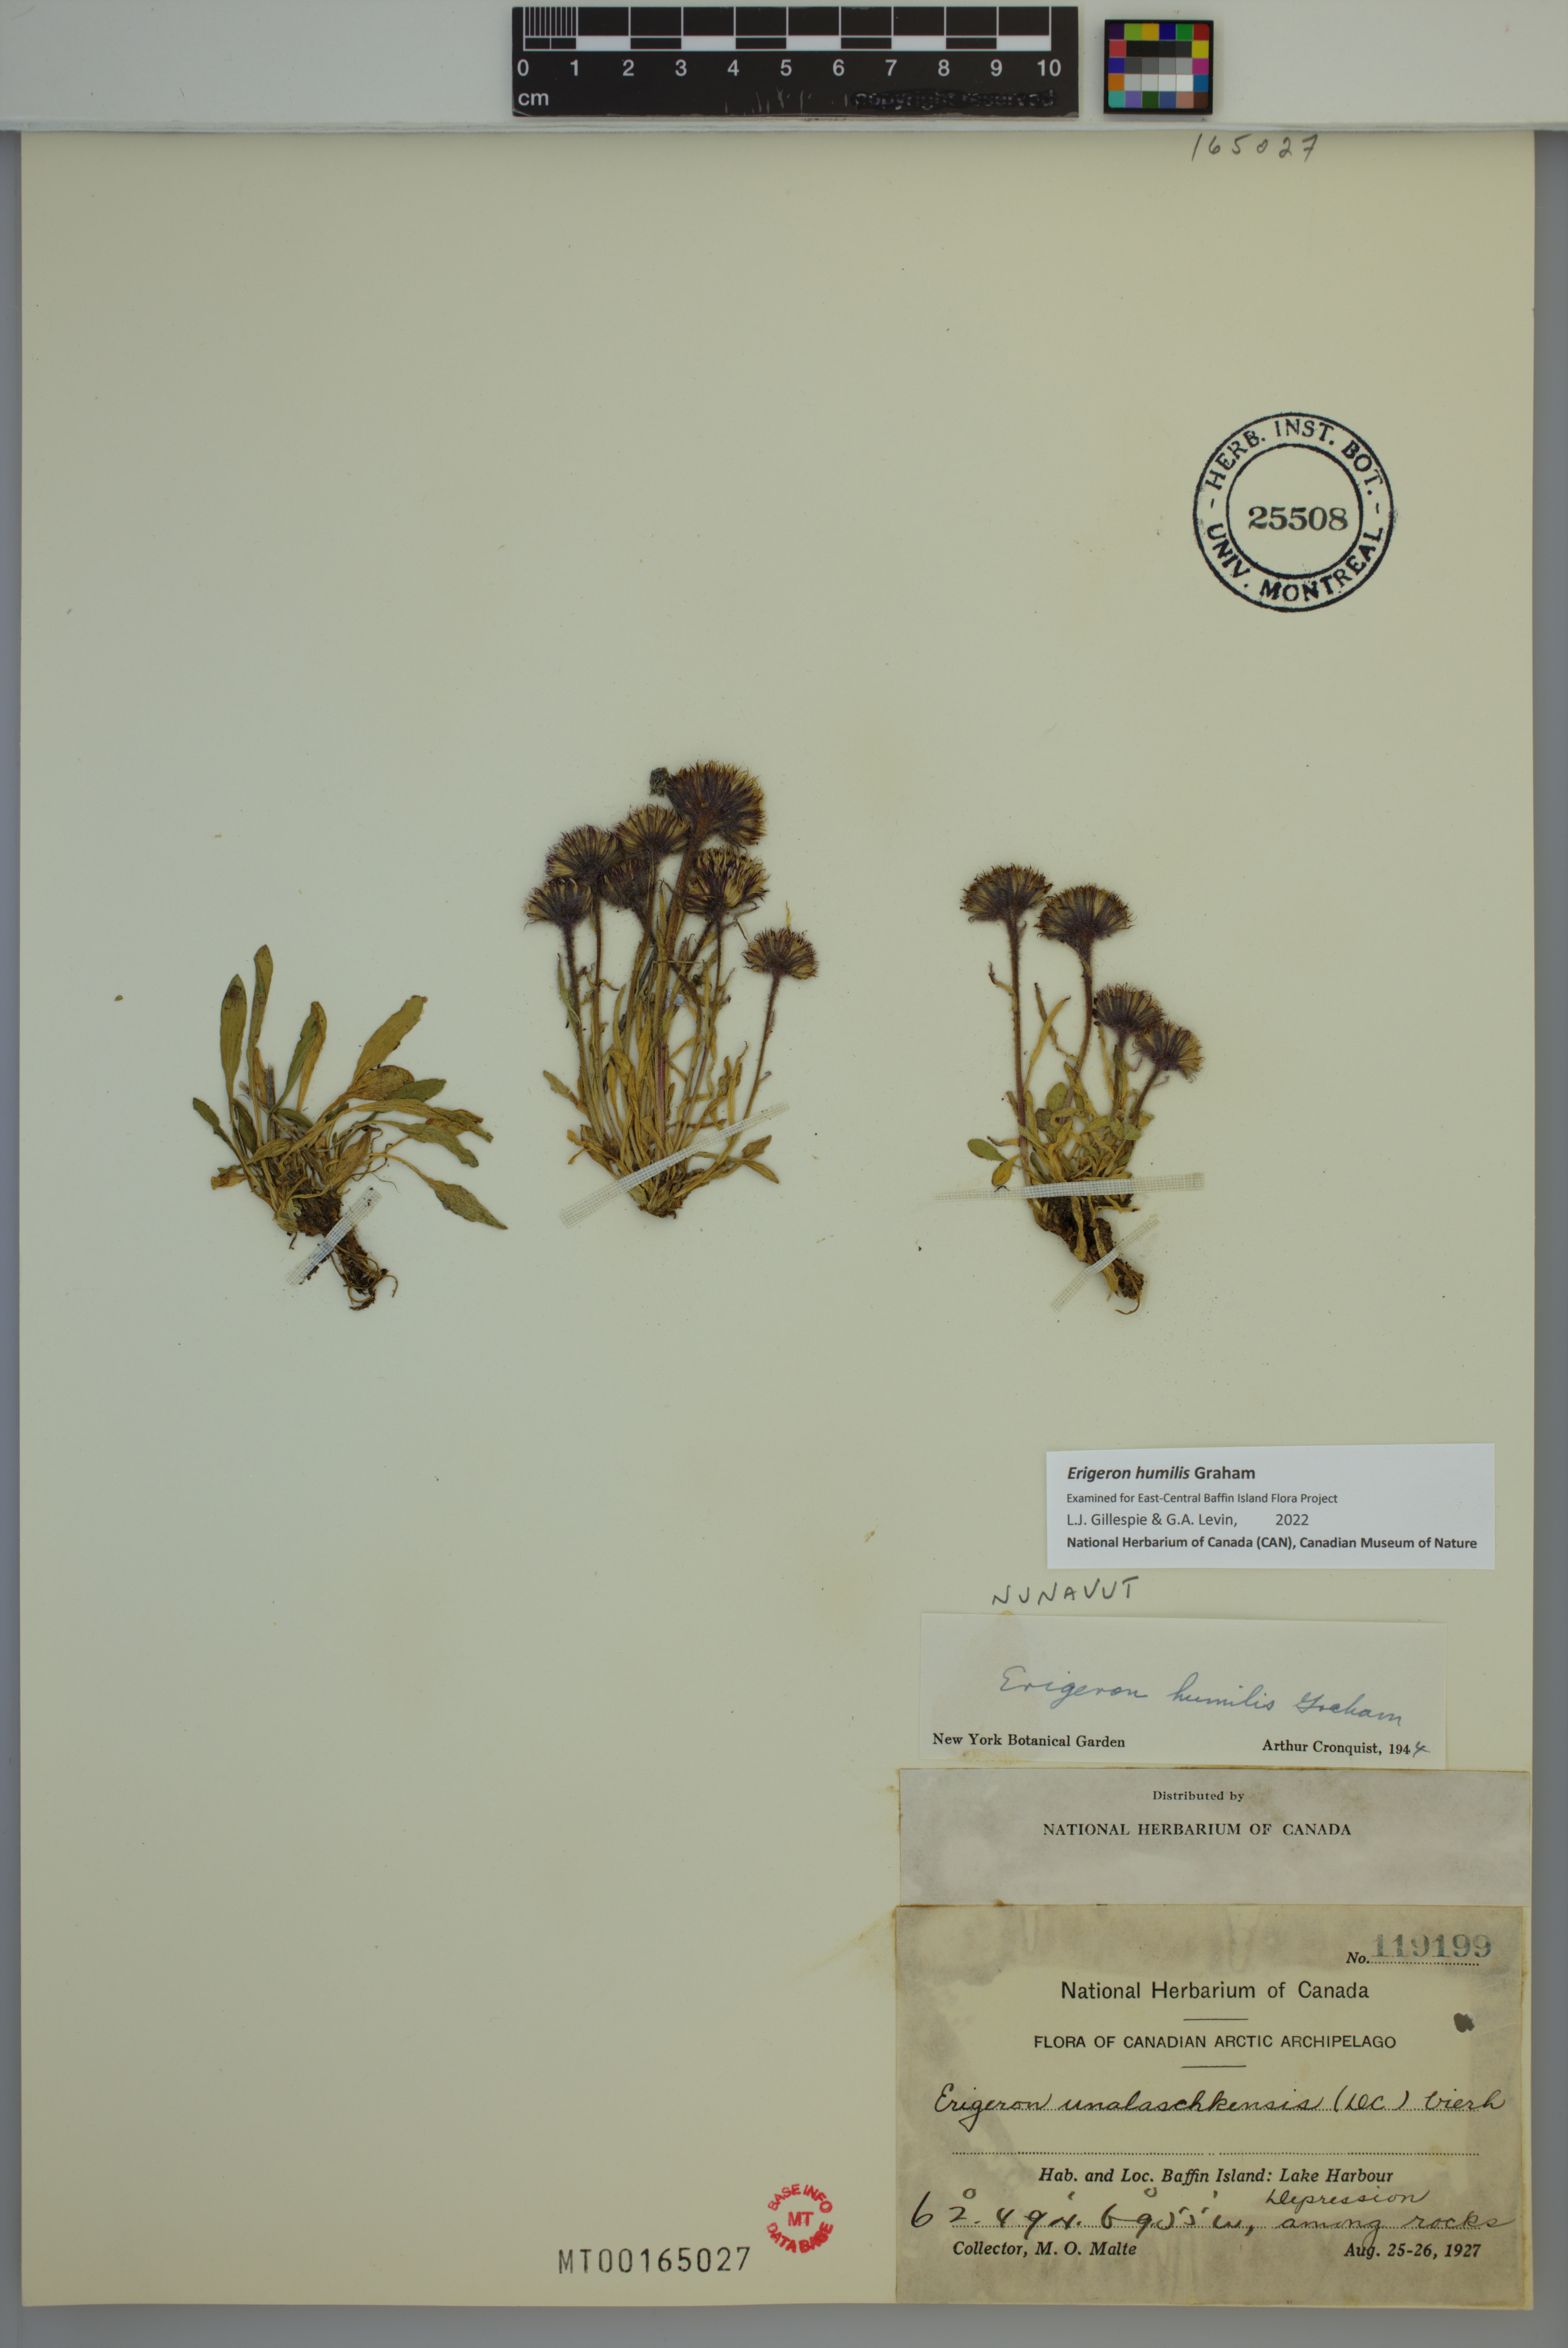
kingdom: Plantae
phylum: Tracheophyta
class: Magnoliopsida
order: Asterales
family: Asteraceae
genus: Erigeron
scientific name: Erigeron humilis
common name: Arctic-alpine fleabane
